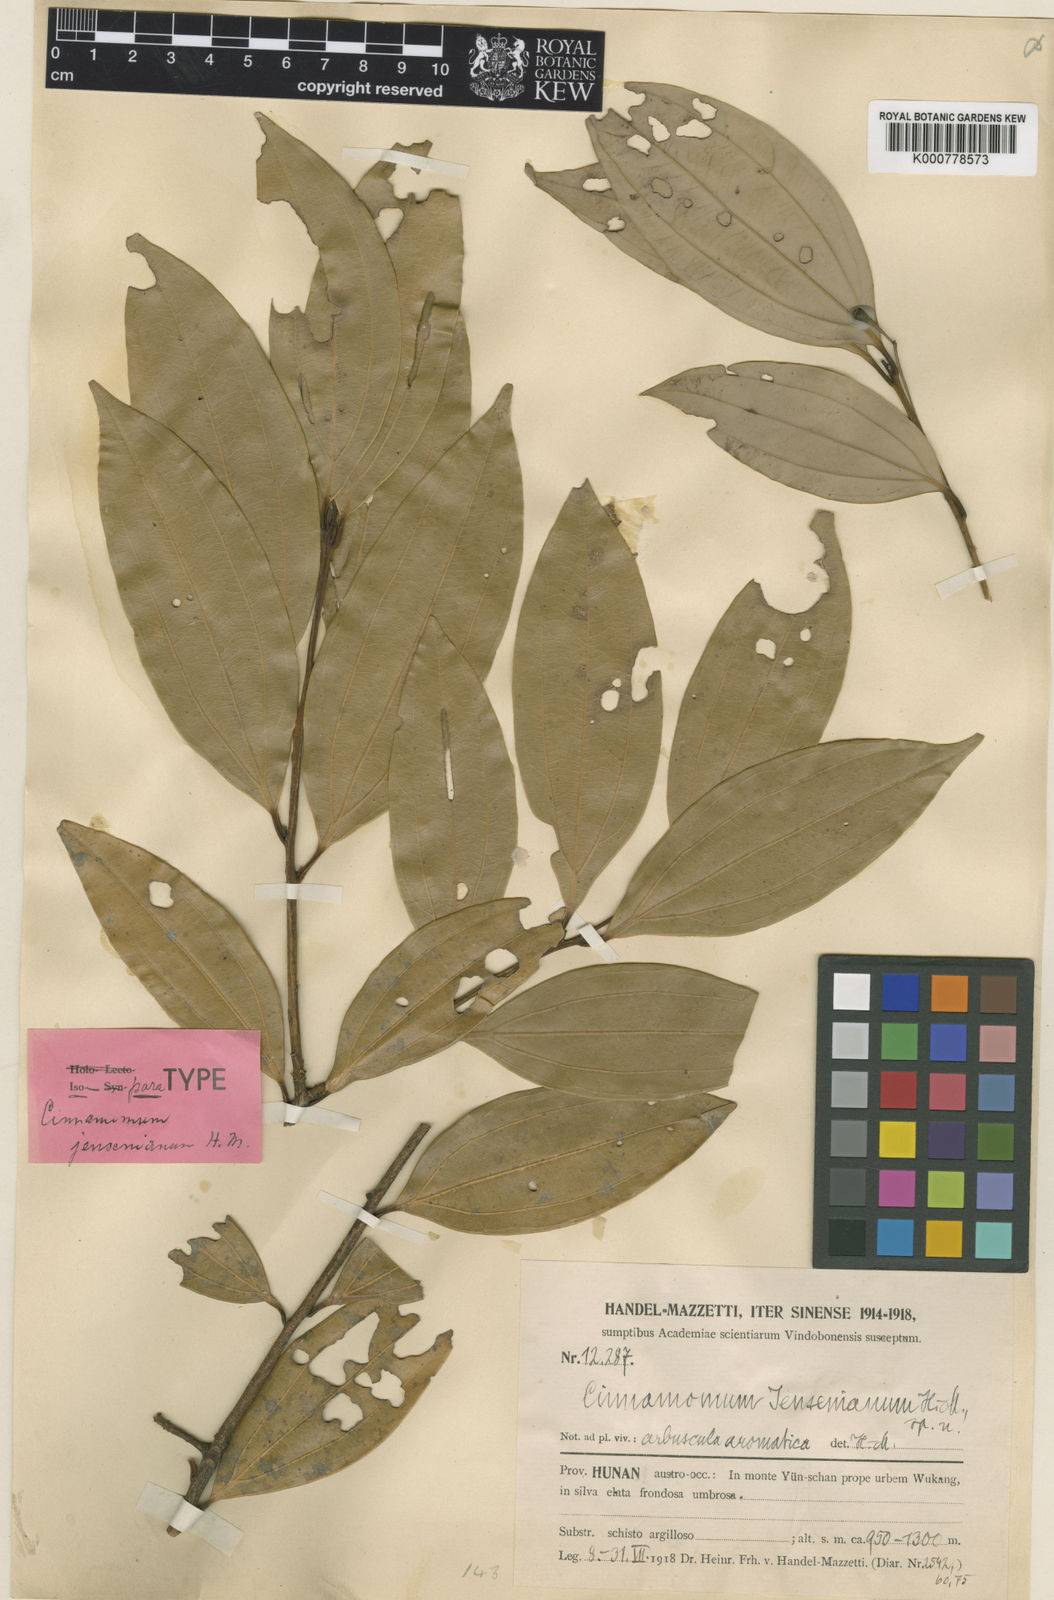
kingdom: Plantae
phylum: Tracheophyta
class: Magnoliopsida
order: Laurales
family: Lauraceae
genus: Cinnamomum
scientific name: Cinnamomum jensenianum
